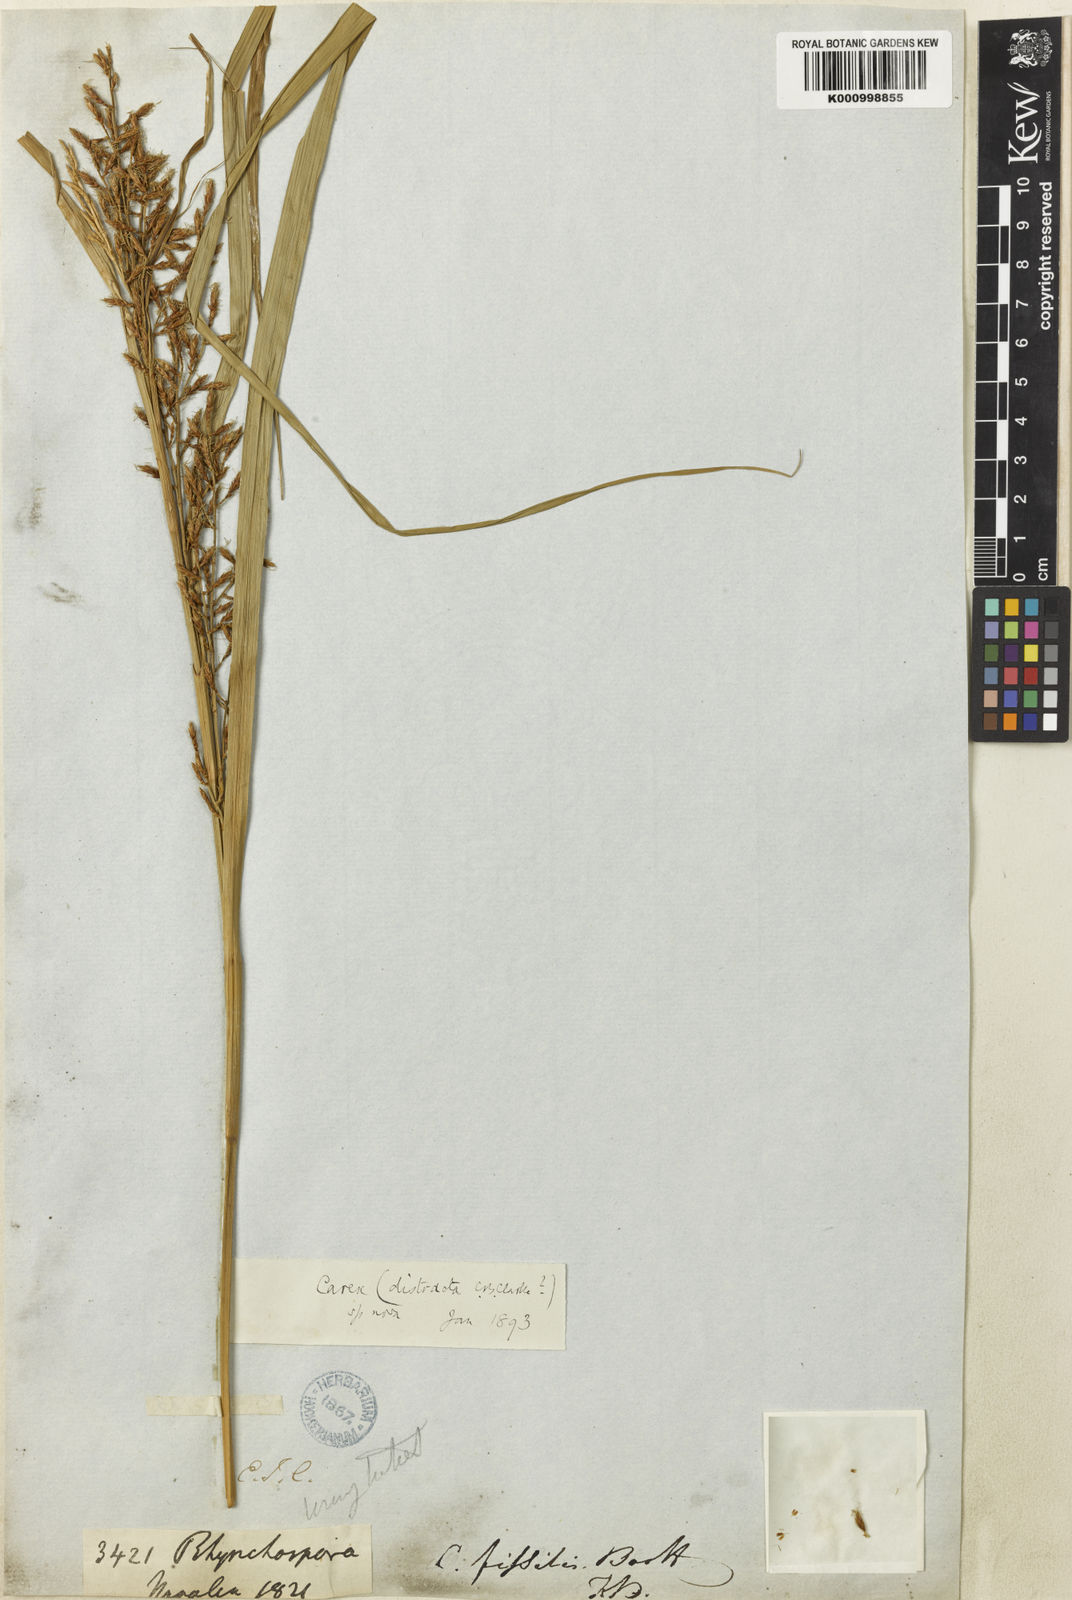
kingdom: Plantae
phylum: Tracheophyta
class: Liliopsida
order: Poales
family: Cyperaceae
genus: Carex
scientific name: Carex distracta
